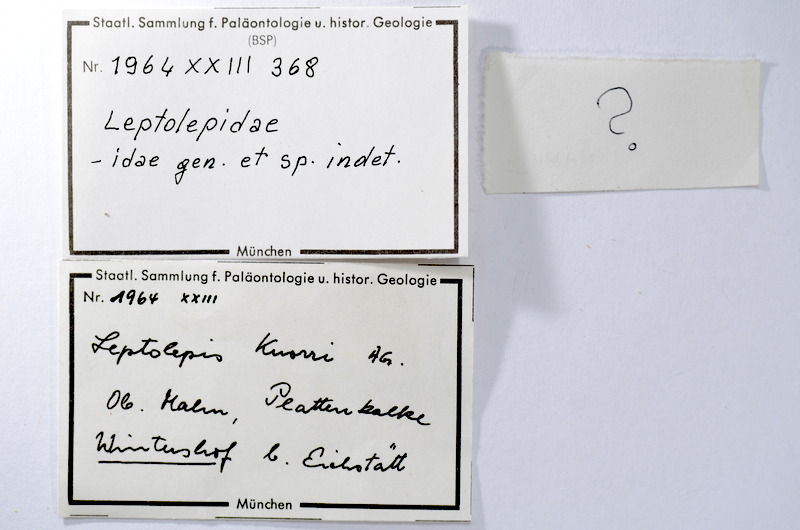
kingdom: Animalia
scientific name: Animalia
